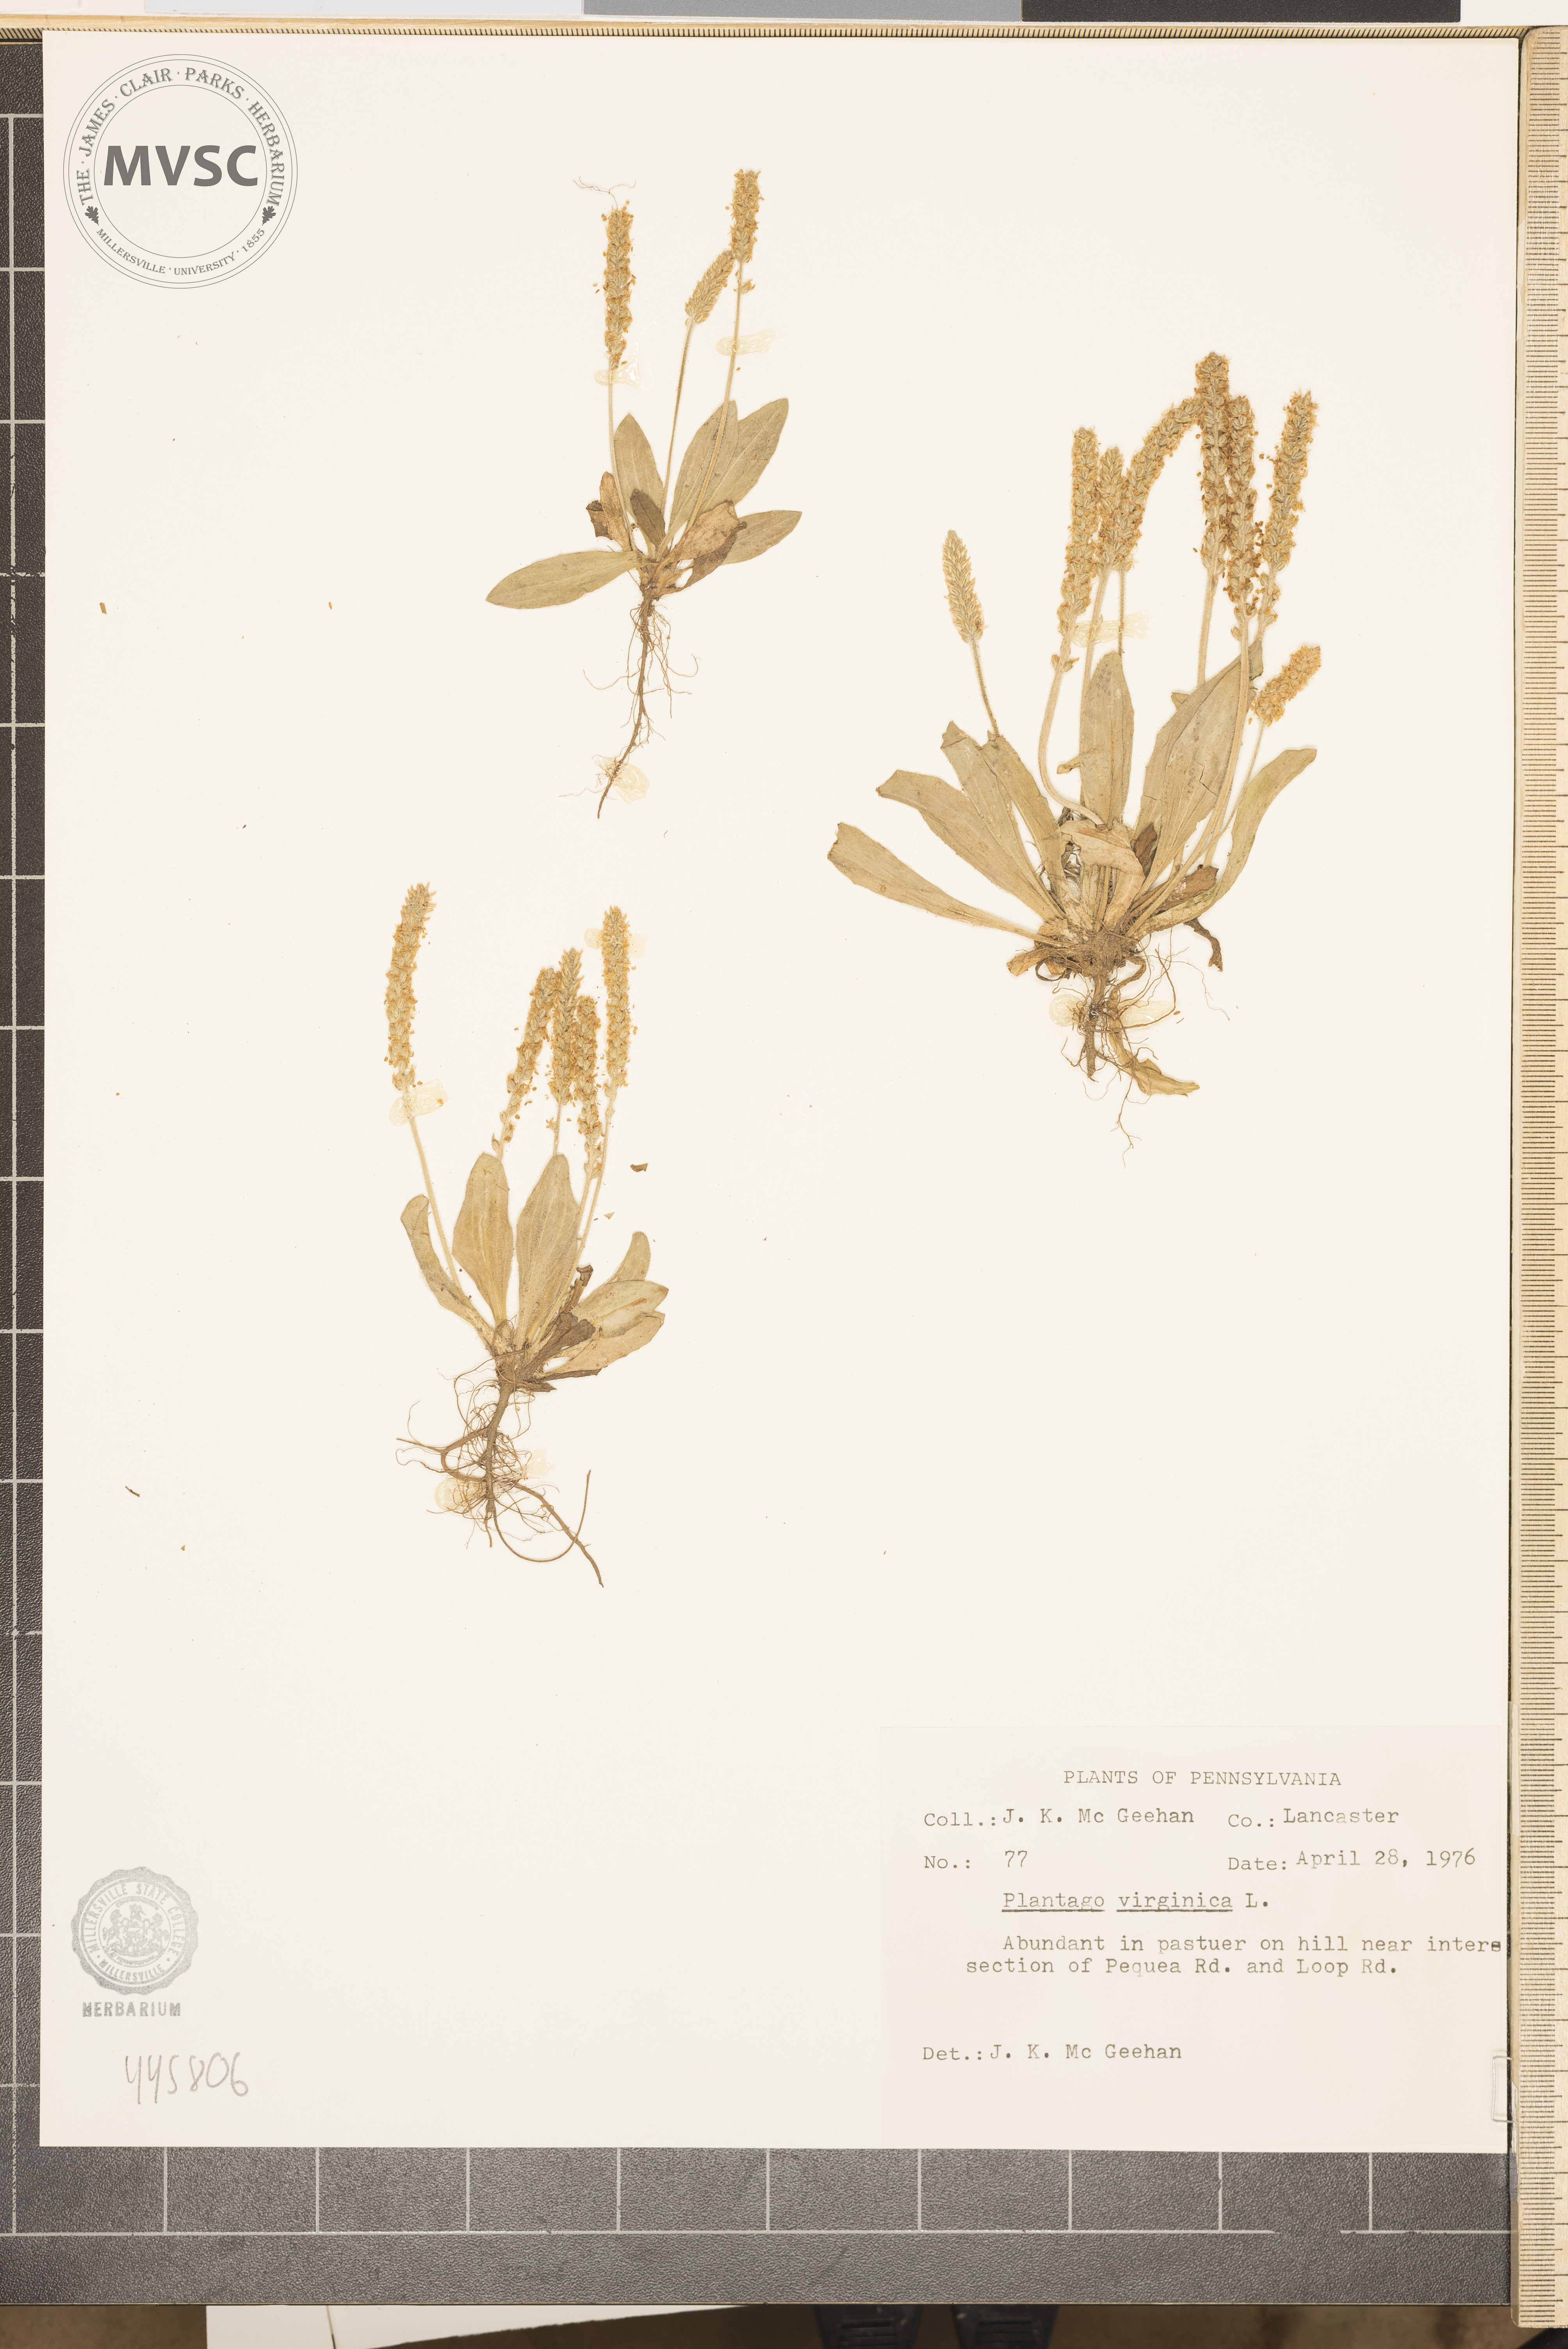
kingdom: Plantae
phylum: Tracheophyta
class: Magnoliopsida
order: Lamiales
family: Plantaginaceae
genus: Plantago
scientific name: Plantago virginica
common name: Hoary plantain
